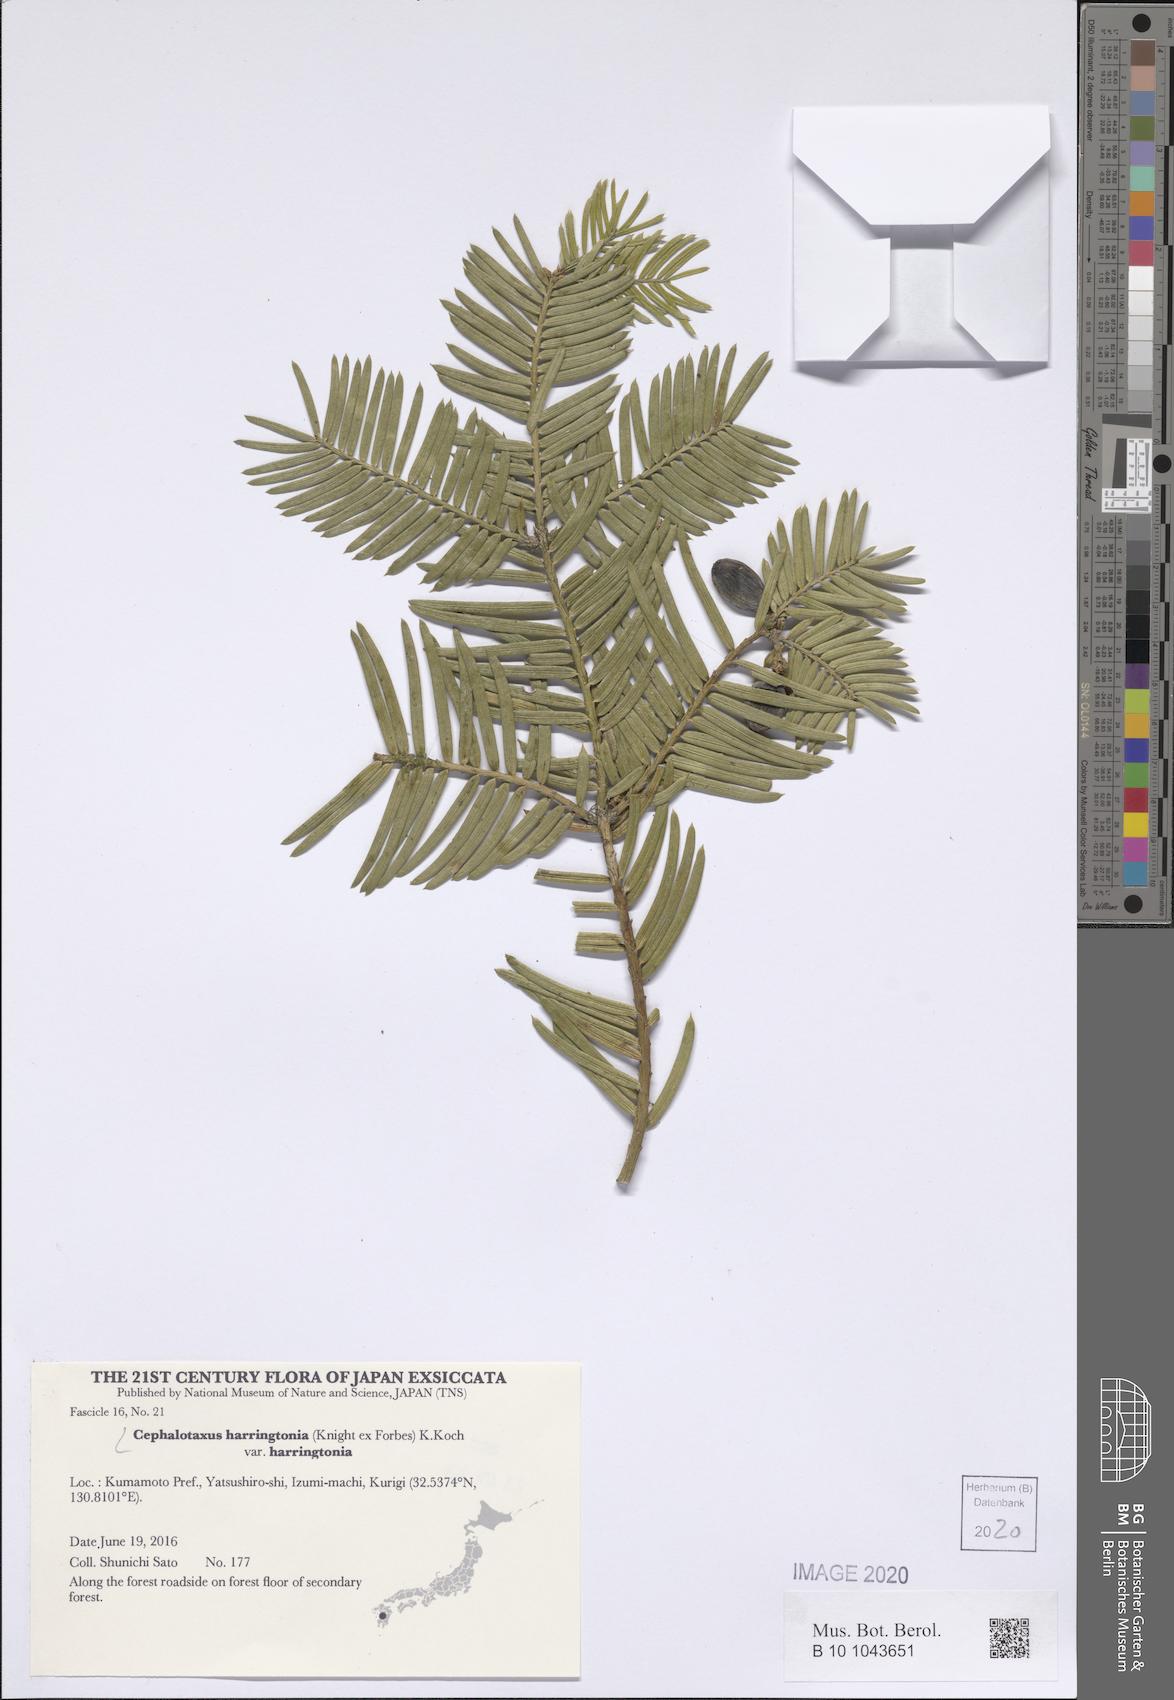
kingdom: Plantae
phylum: Tracheophyta
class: Pinopsida
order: Pinales
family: Cephalotaxaceae
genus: Cephalotaxus
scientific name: Cephalotaxus harringtonii
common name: Harrington's plum yew
